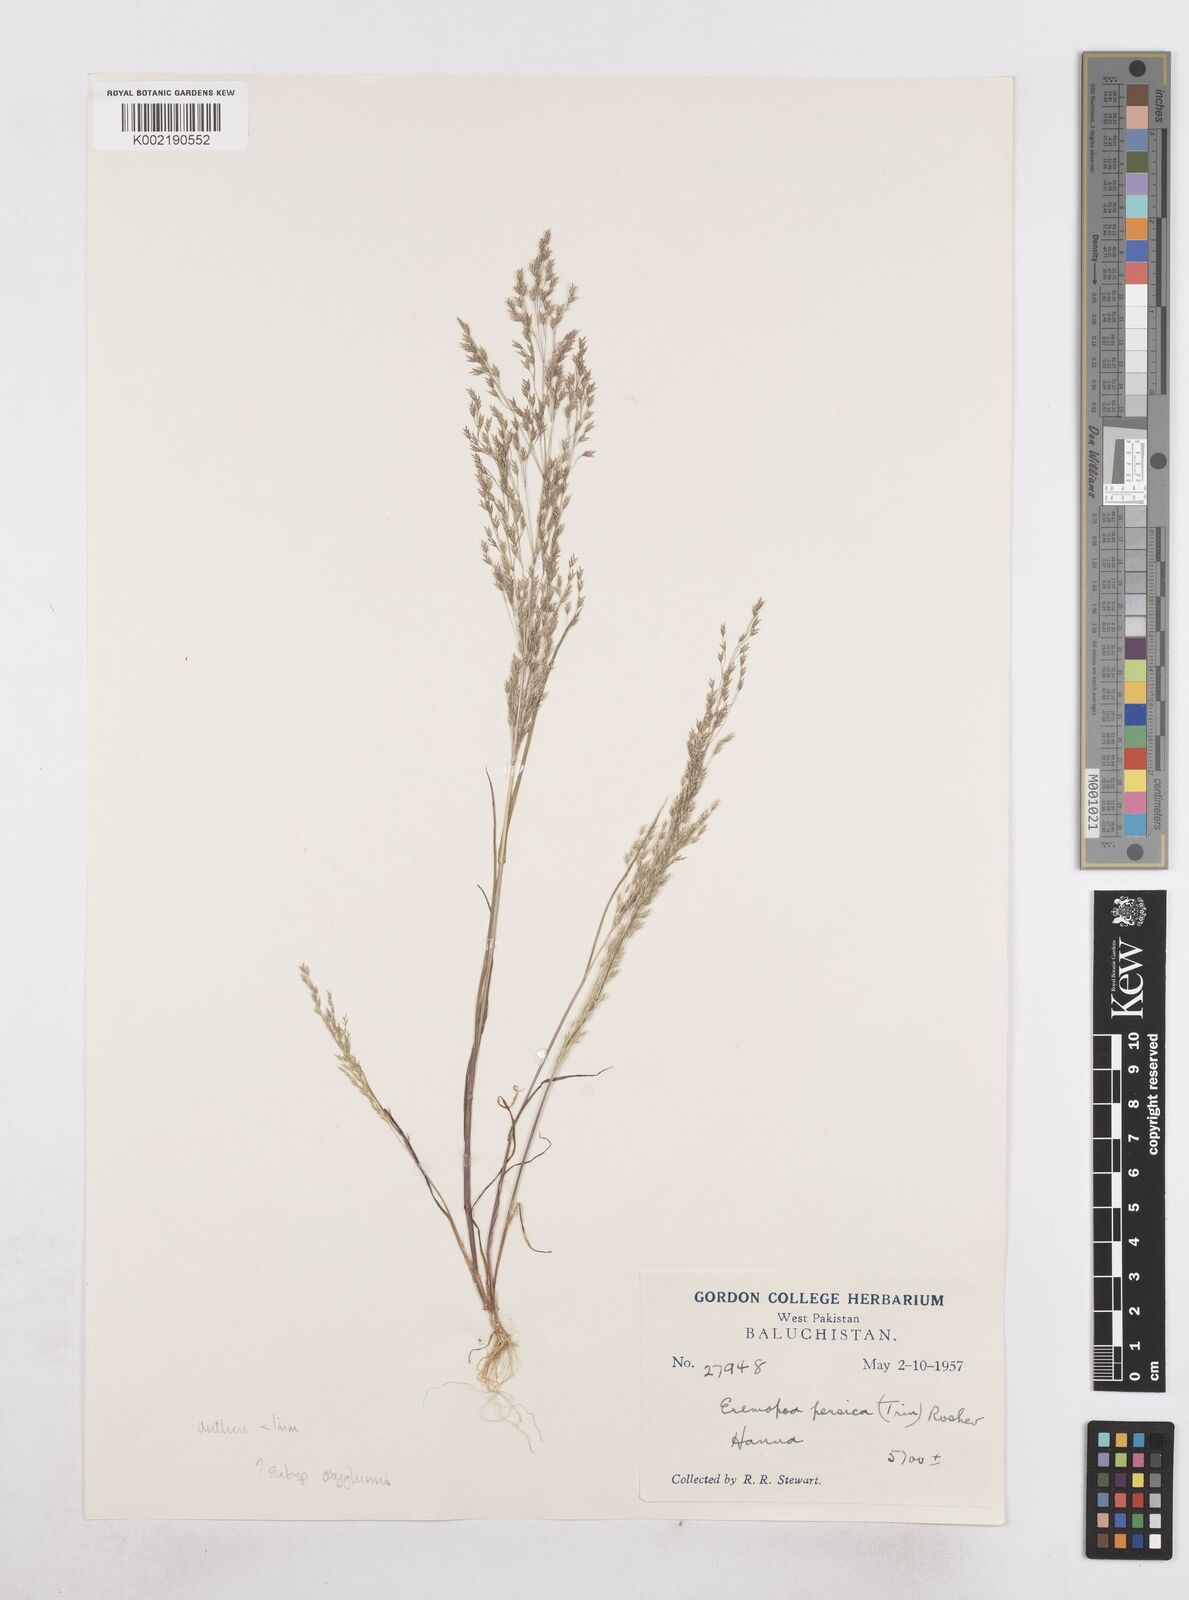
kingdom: Plantae
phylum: Tracheophyta
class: Liliopsida
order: Poales
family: Poaceae
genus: Poa
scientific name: Poa diaphora
